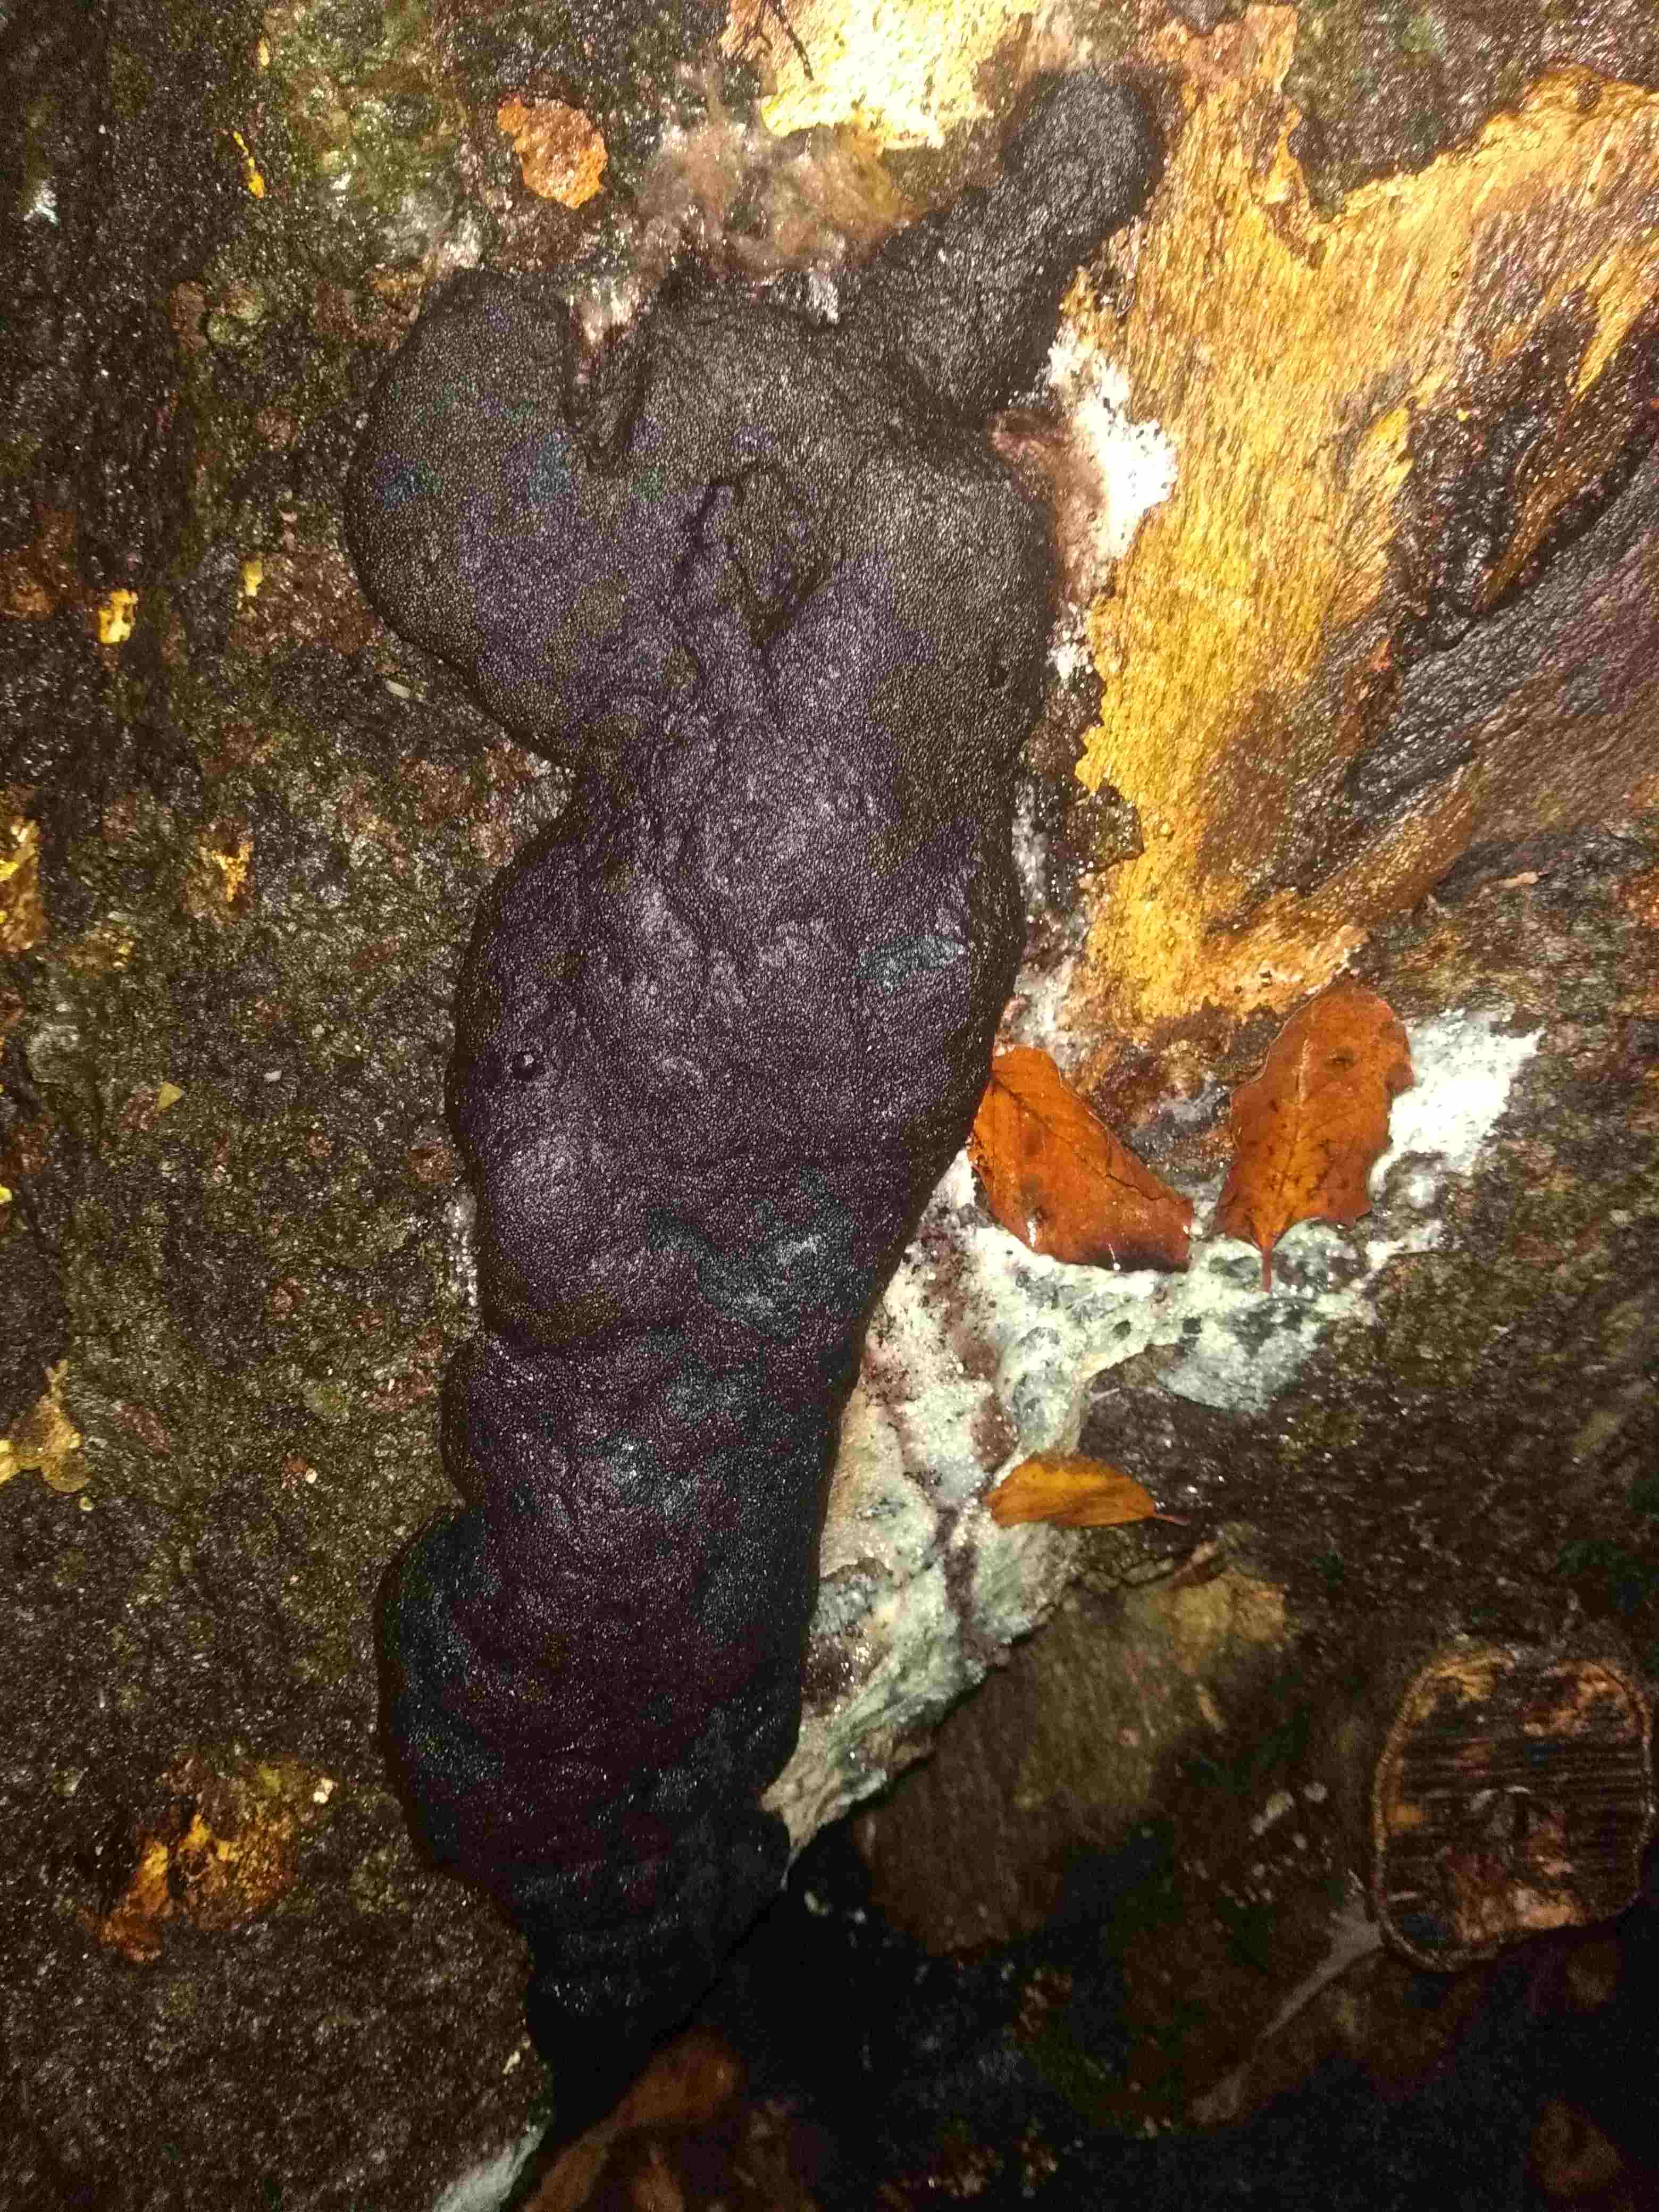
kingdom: Protozoa
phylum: Mycetozoa
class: Myxomycetes
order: Stemonitidales
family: Stemonitidaceae
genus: Brefeldia
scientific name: Brefeldia maxima
